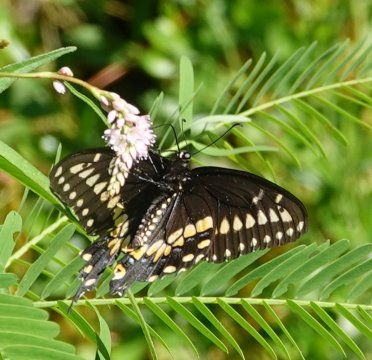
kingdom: Animalia
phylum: Arthropoda
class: Insecta
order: Lepidoptera
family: Papilionidae
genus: Papilio
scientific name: Papilio polyxenes
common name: Black Swallowtail
